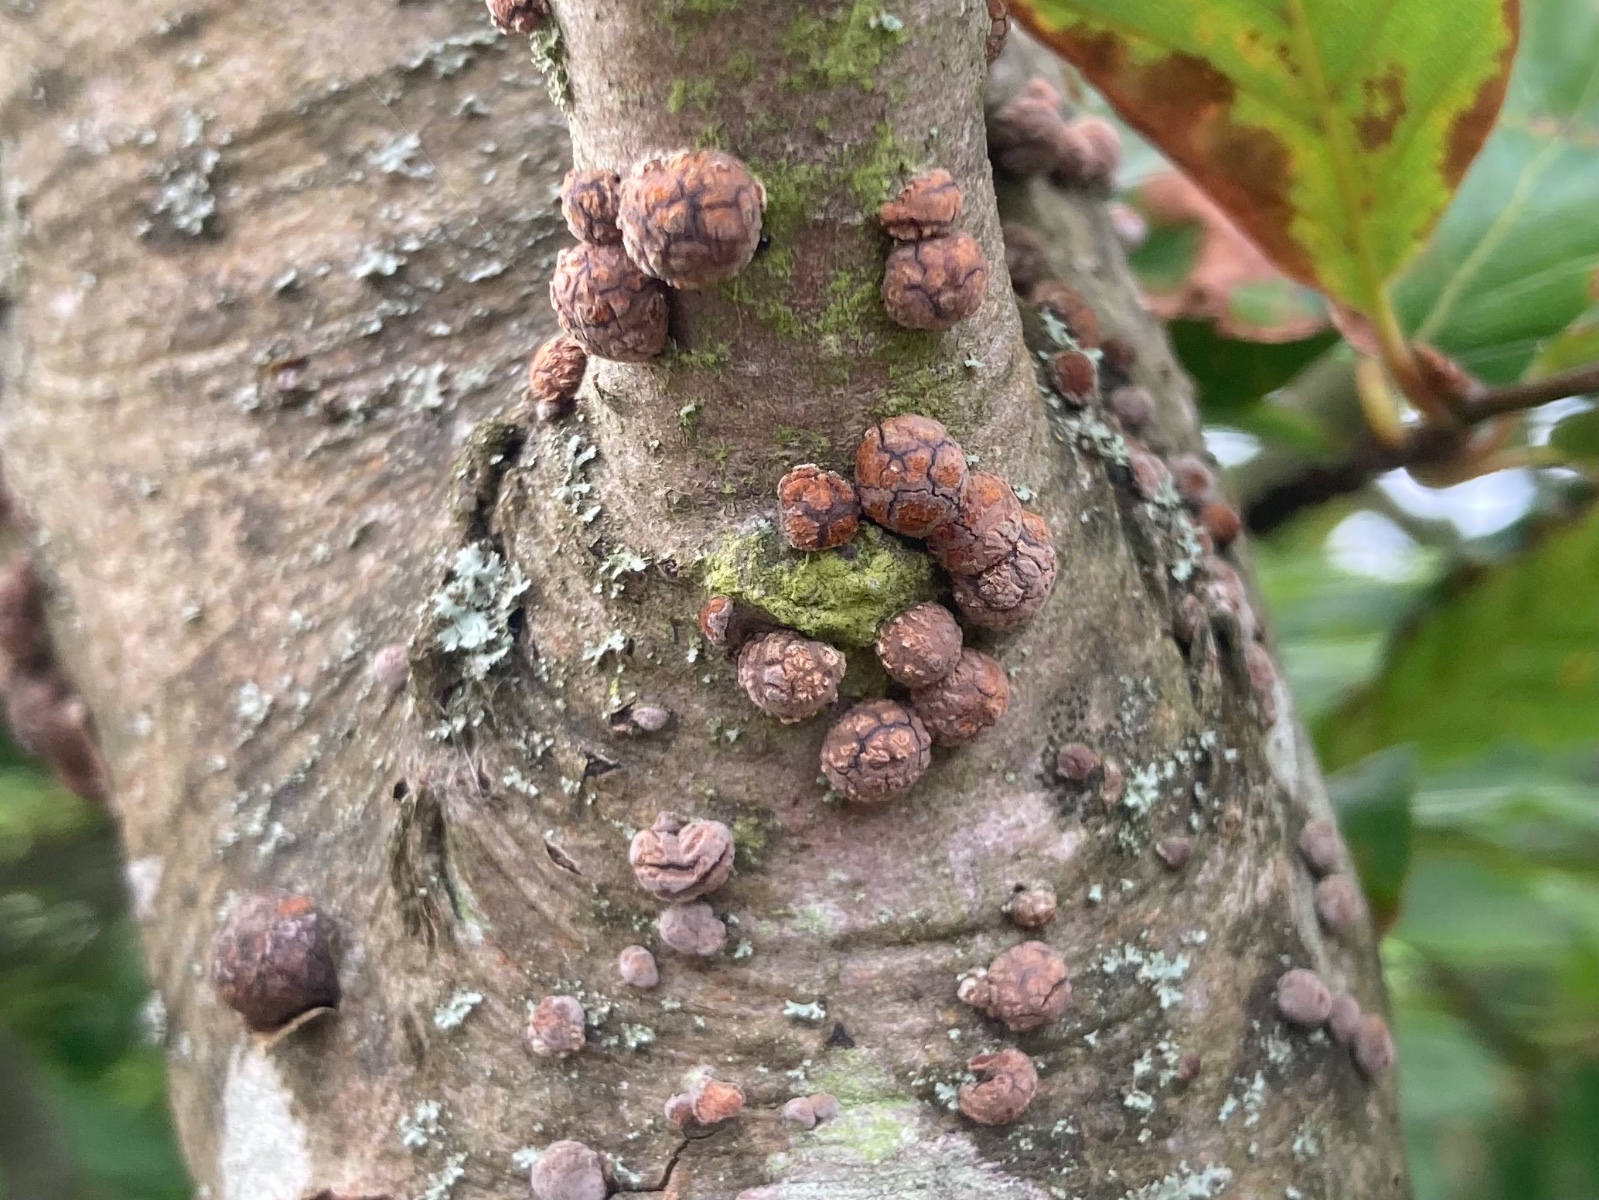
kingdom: Fungi
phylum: Ascomycota
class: Sordariomycetes
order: Xylariales
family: Hypoxylaceae
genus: Hypoxylon
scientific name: Hypoxylon fragiforme
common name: kuljordbær
